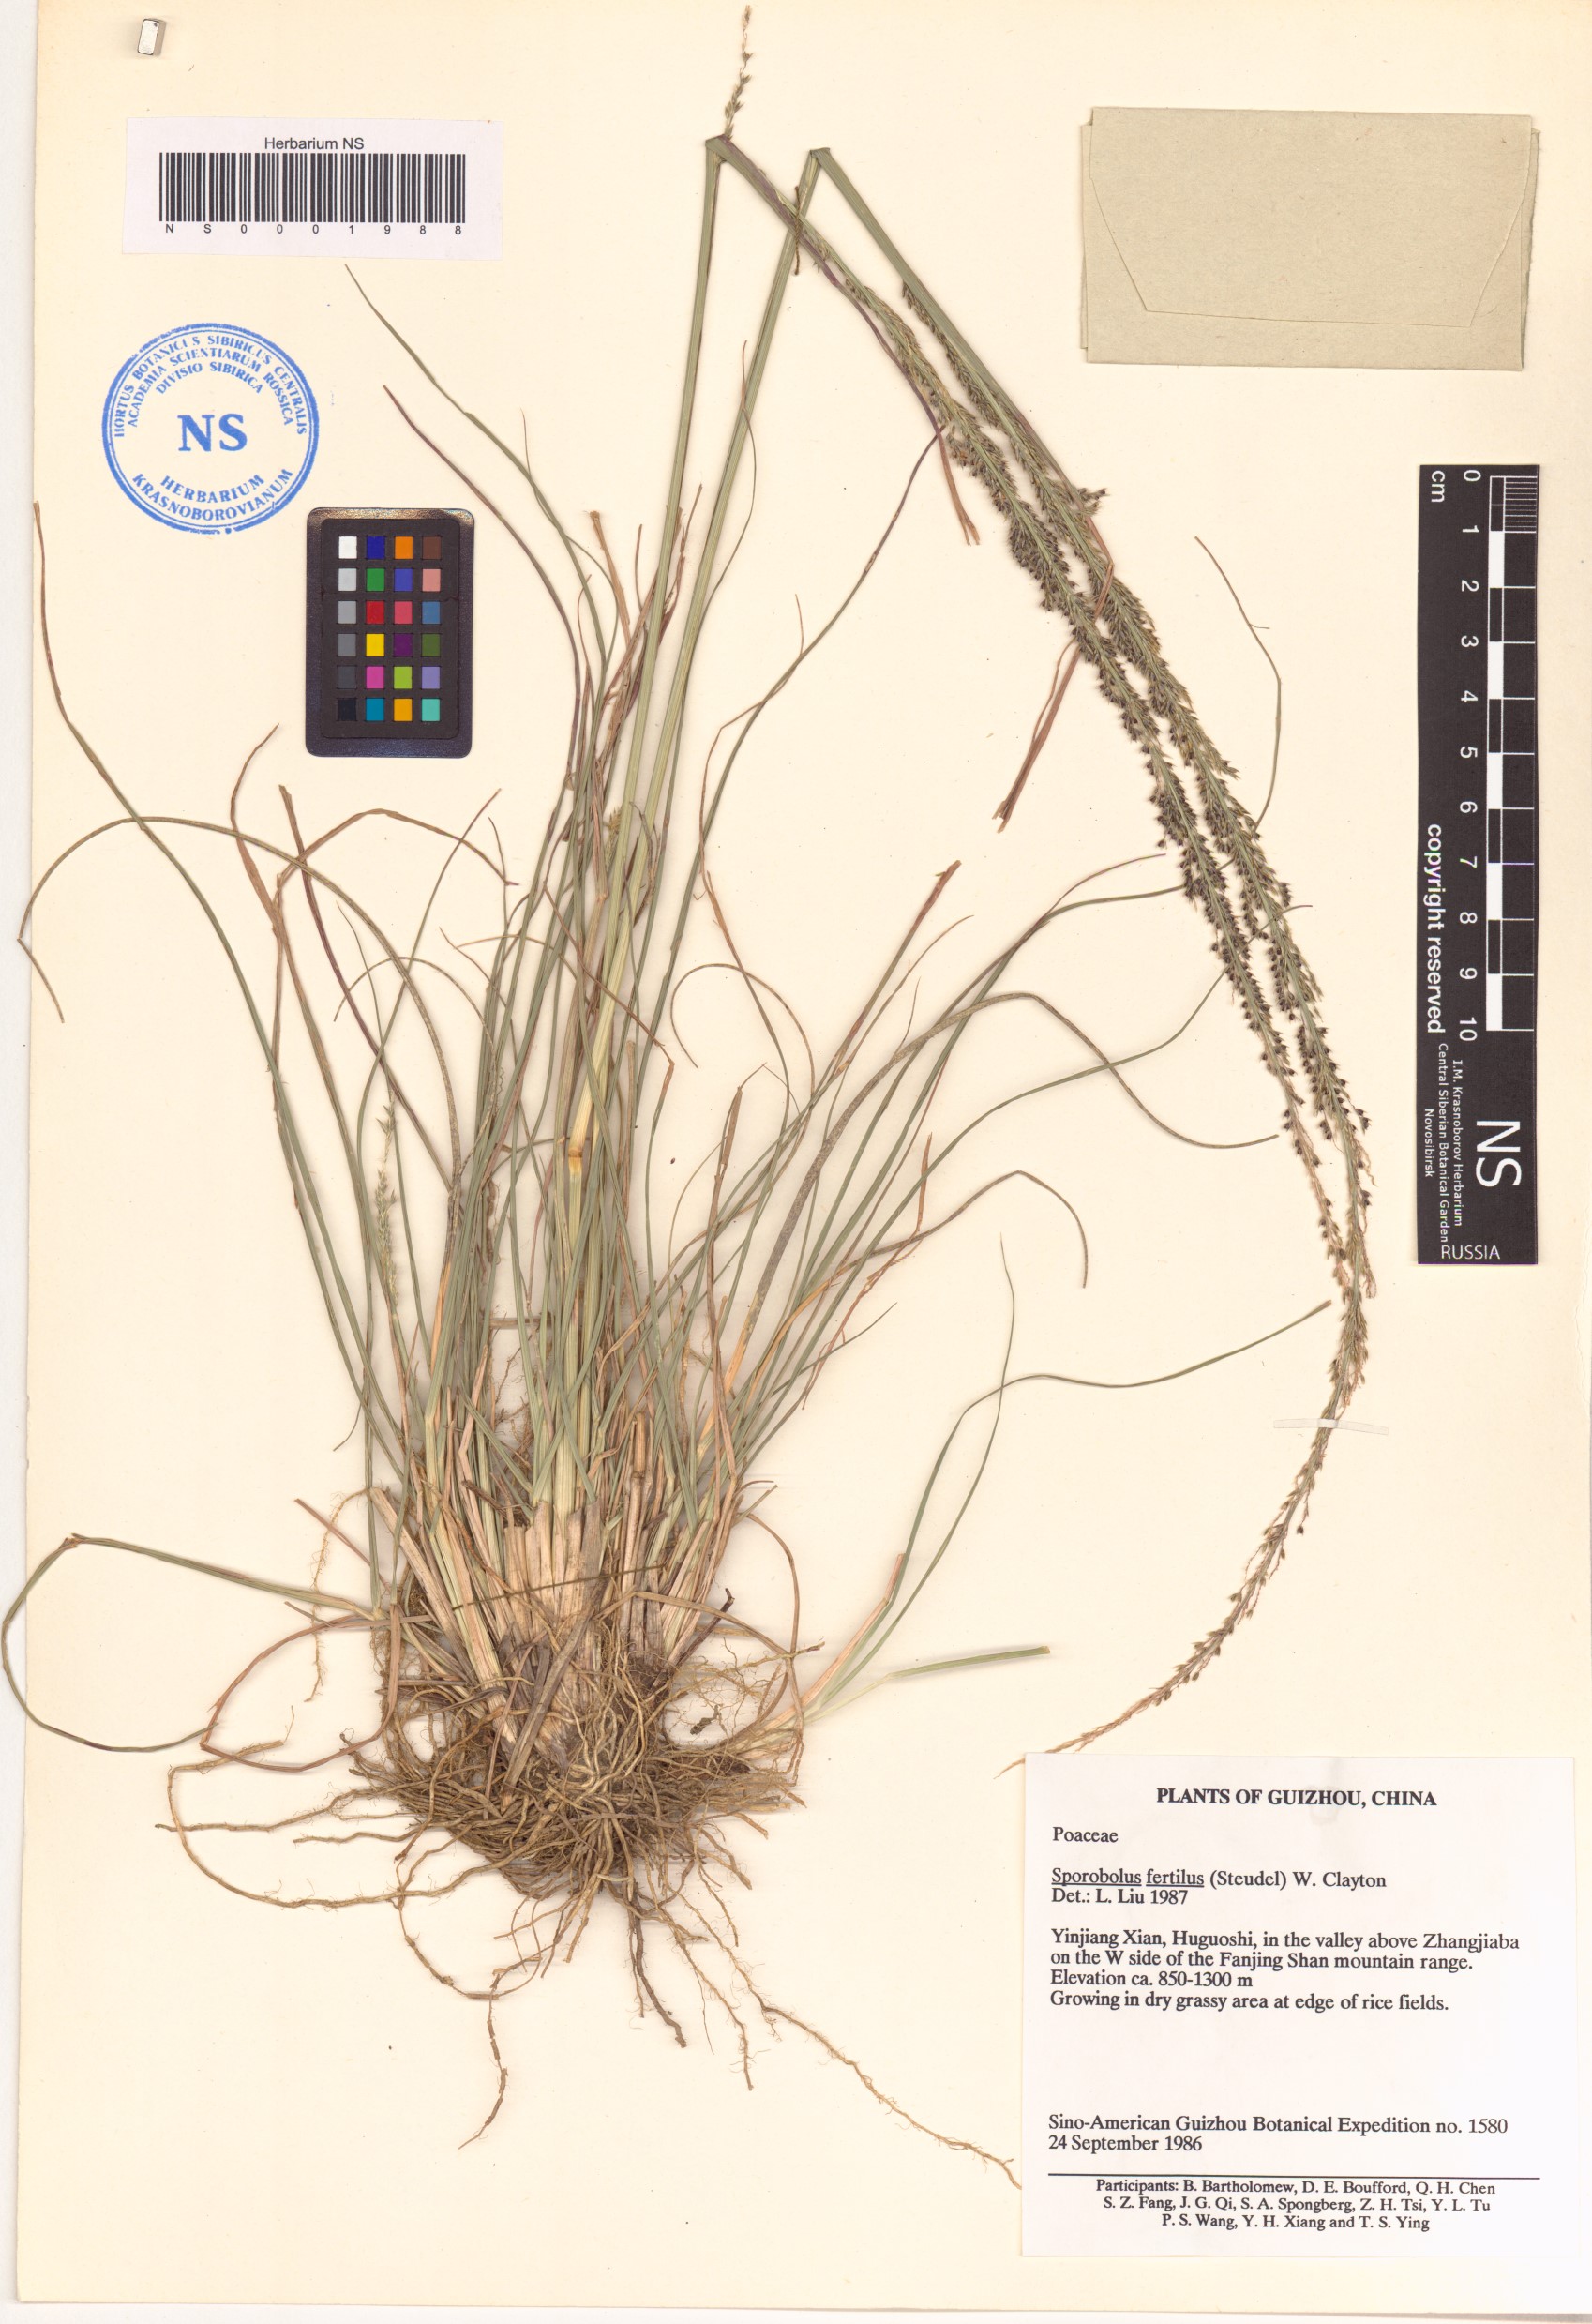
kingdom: Plantae
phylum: Tracheophyta
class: Liliopsida
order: Poales
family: Poaceae
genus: Sporobolus
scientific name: Sporobolus fertilis
